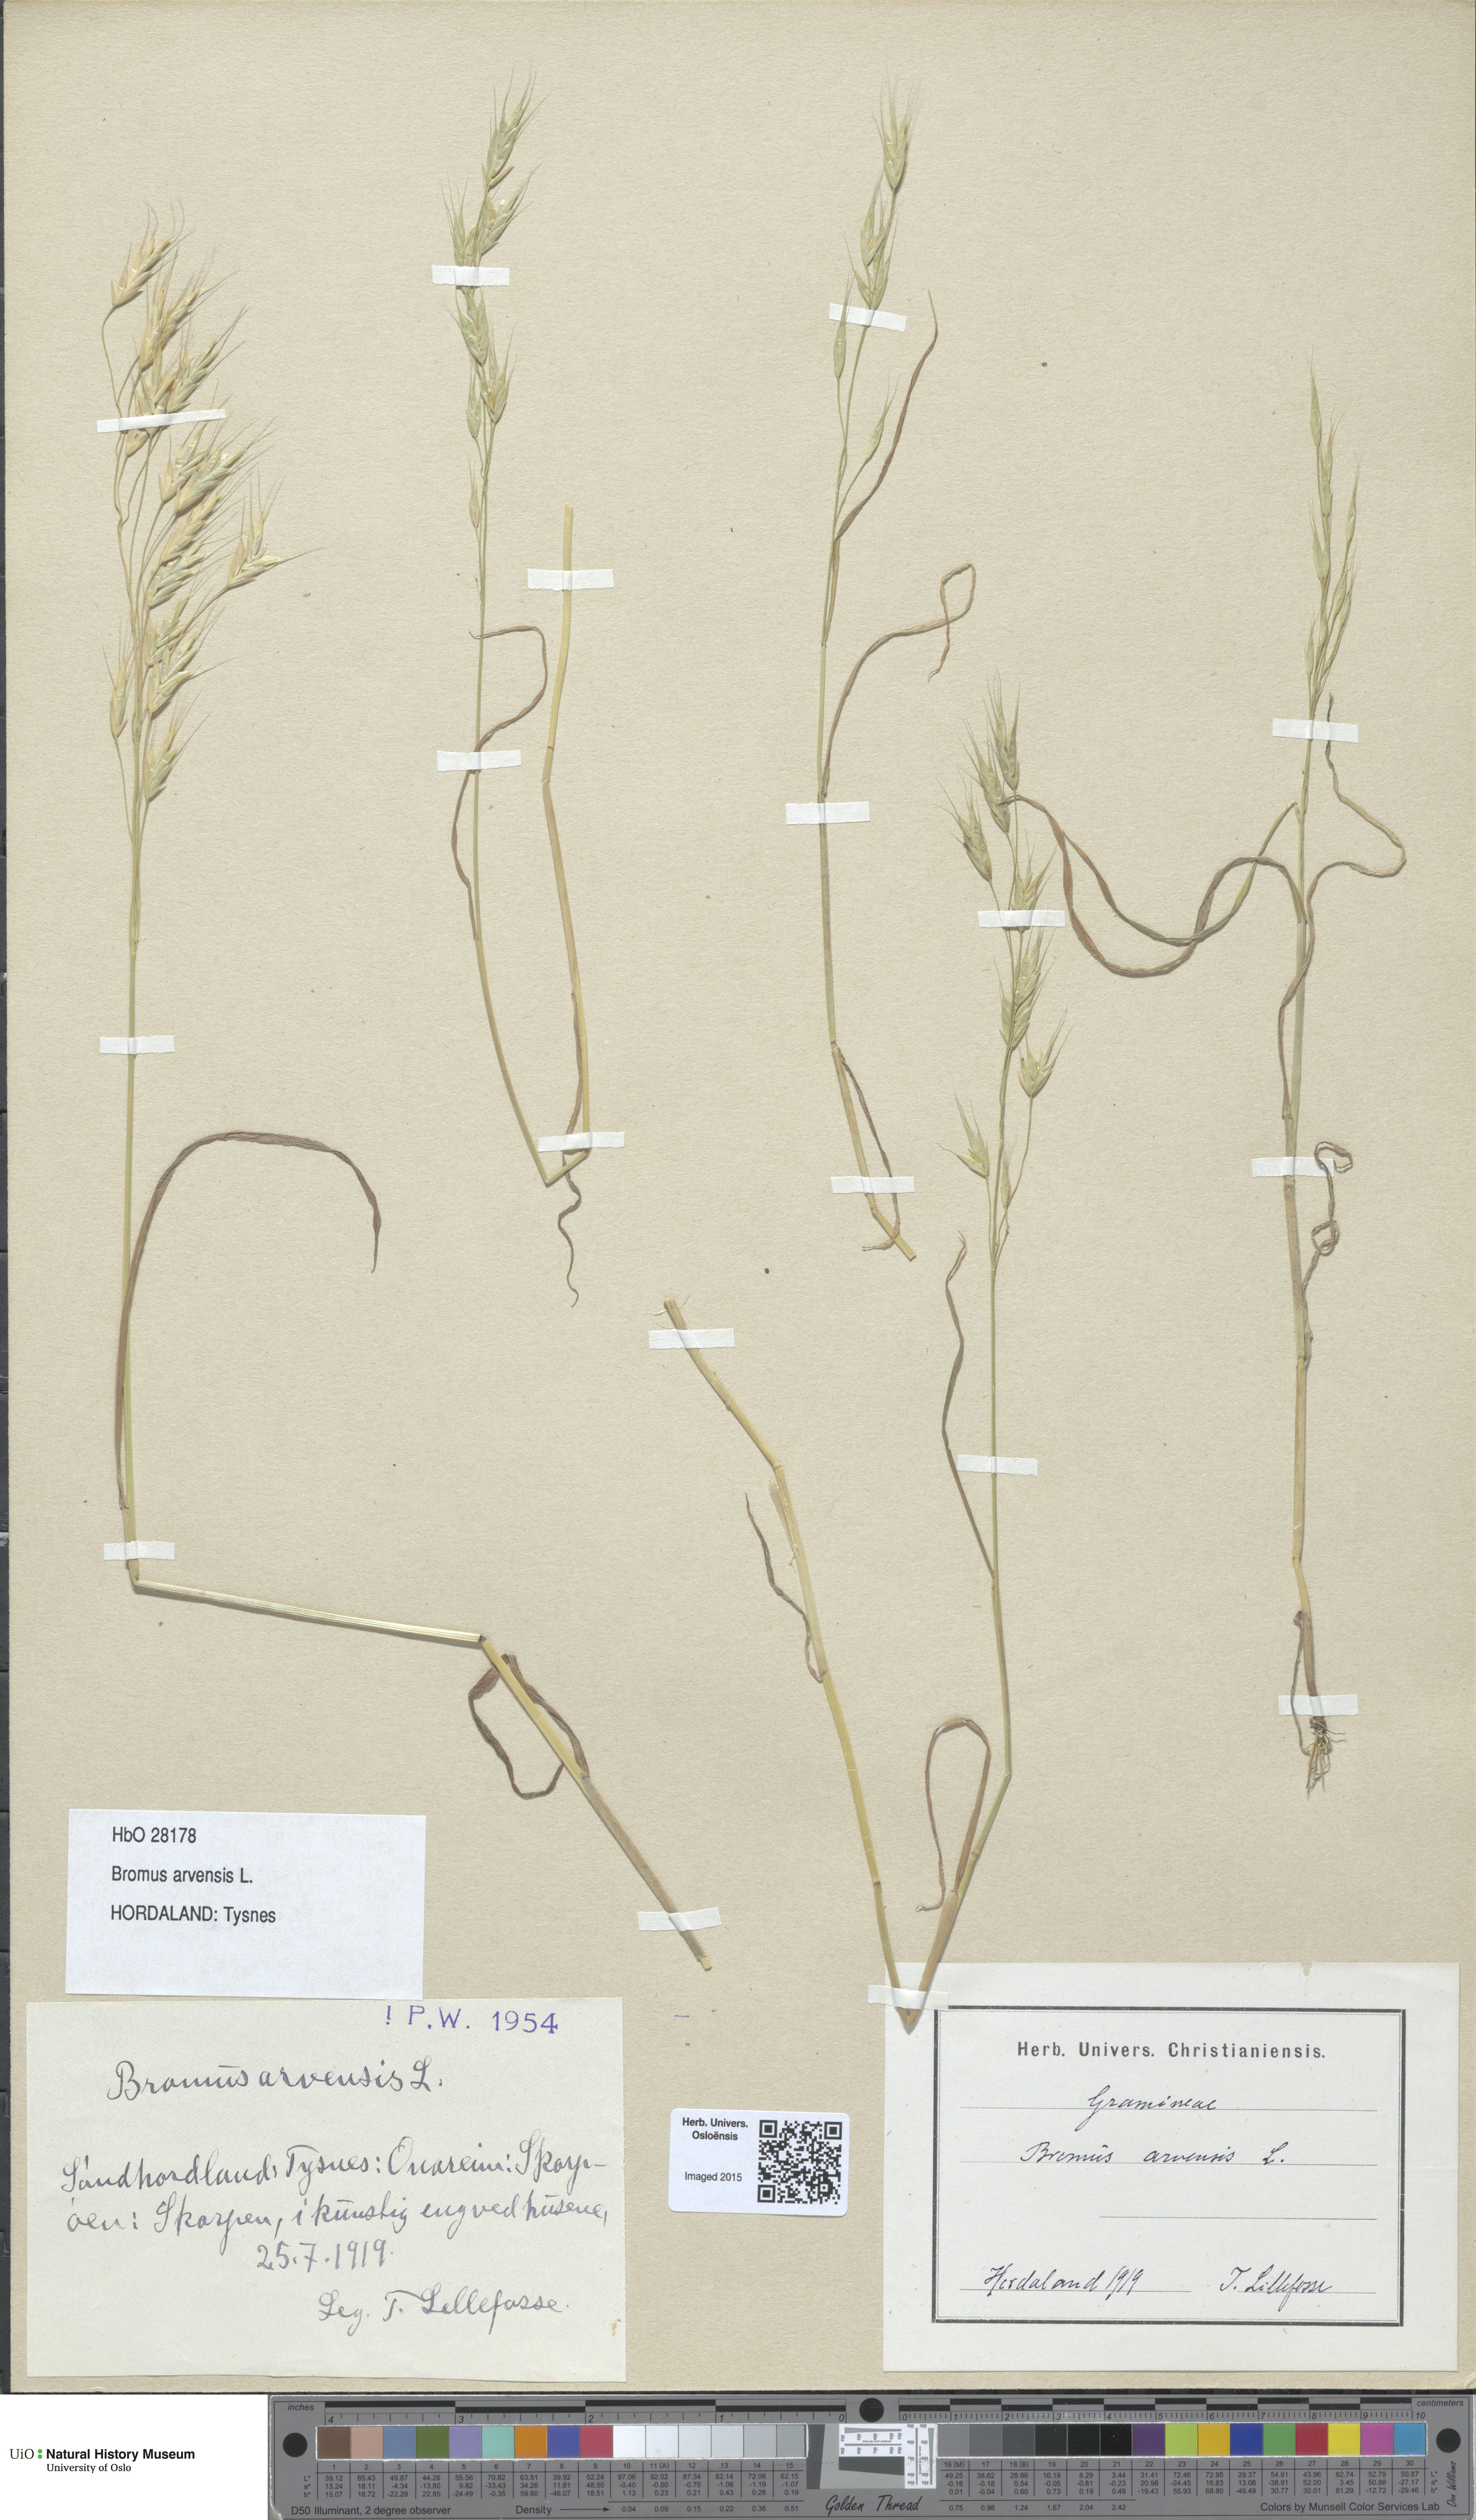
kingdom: Plantae
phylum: Tracheophyta
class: Liliopsida
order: Poales
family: Poaceae
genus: Bromus
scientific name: Bromus arvensis
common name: Field brome
